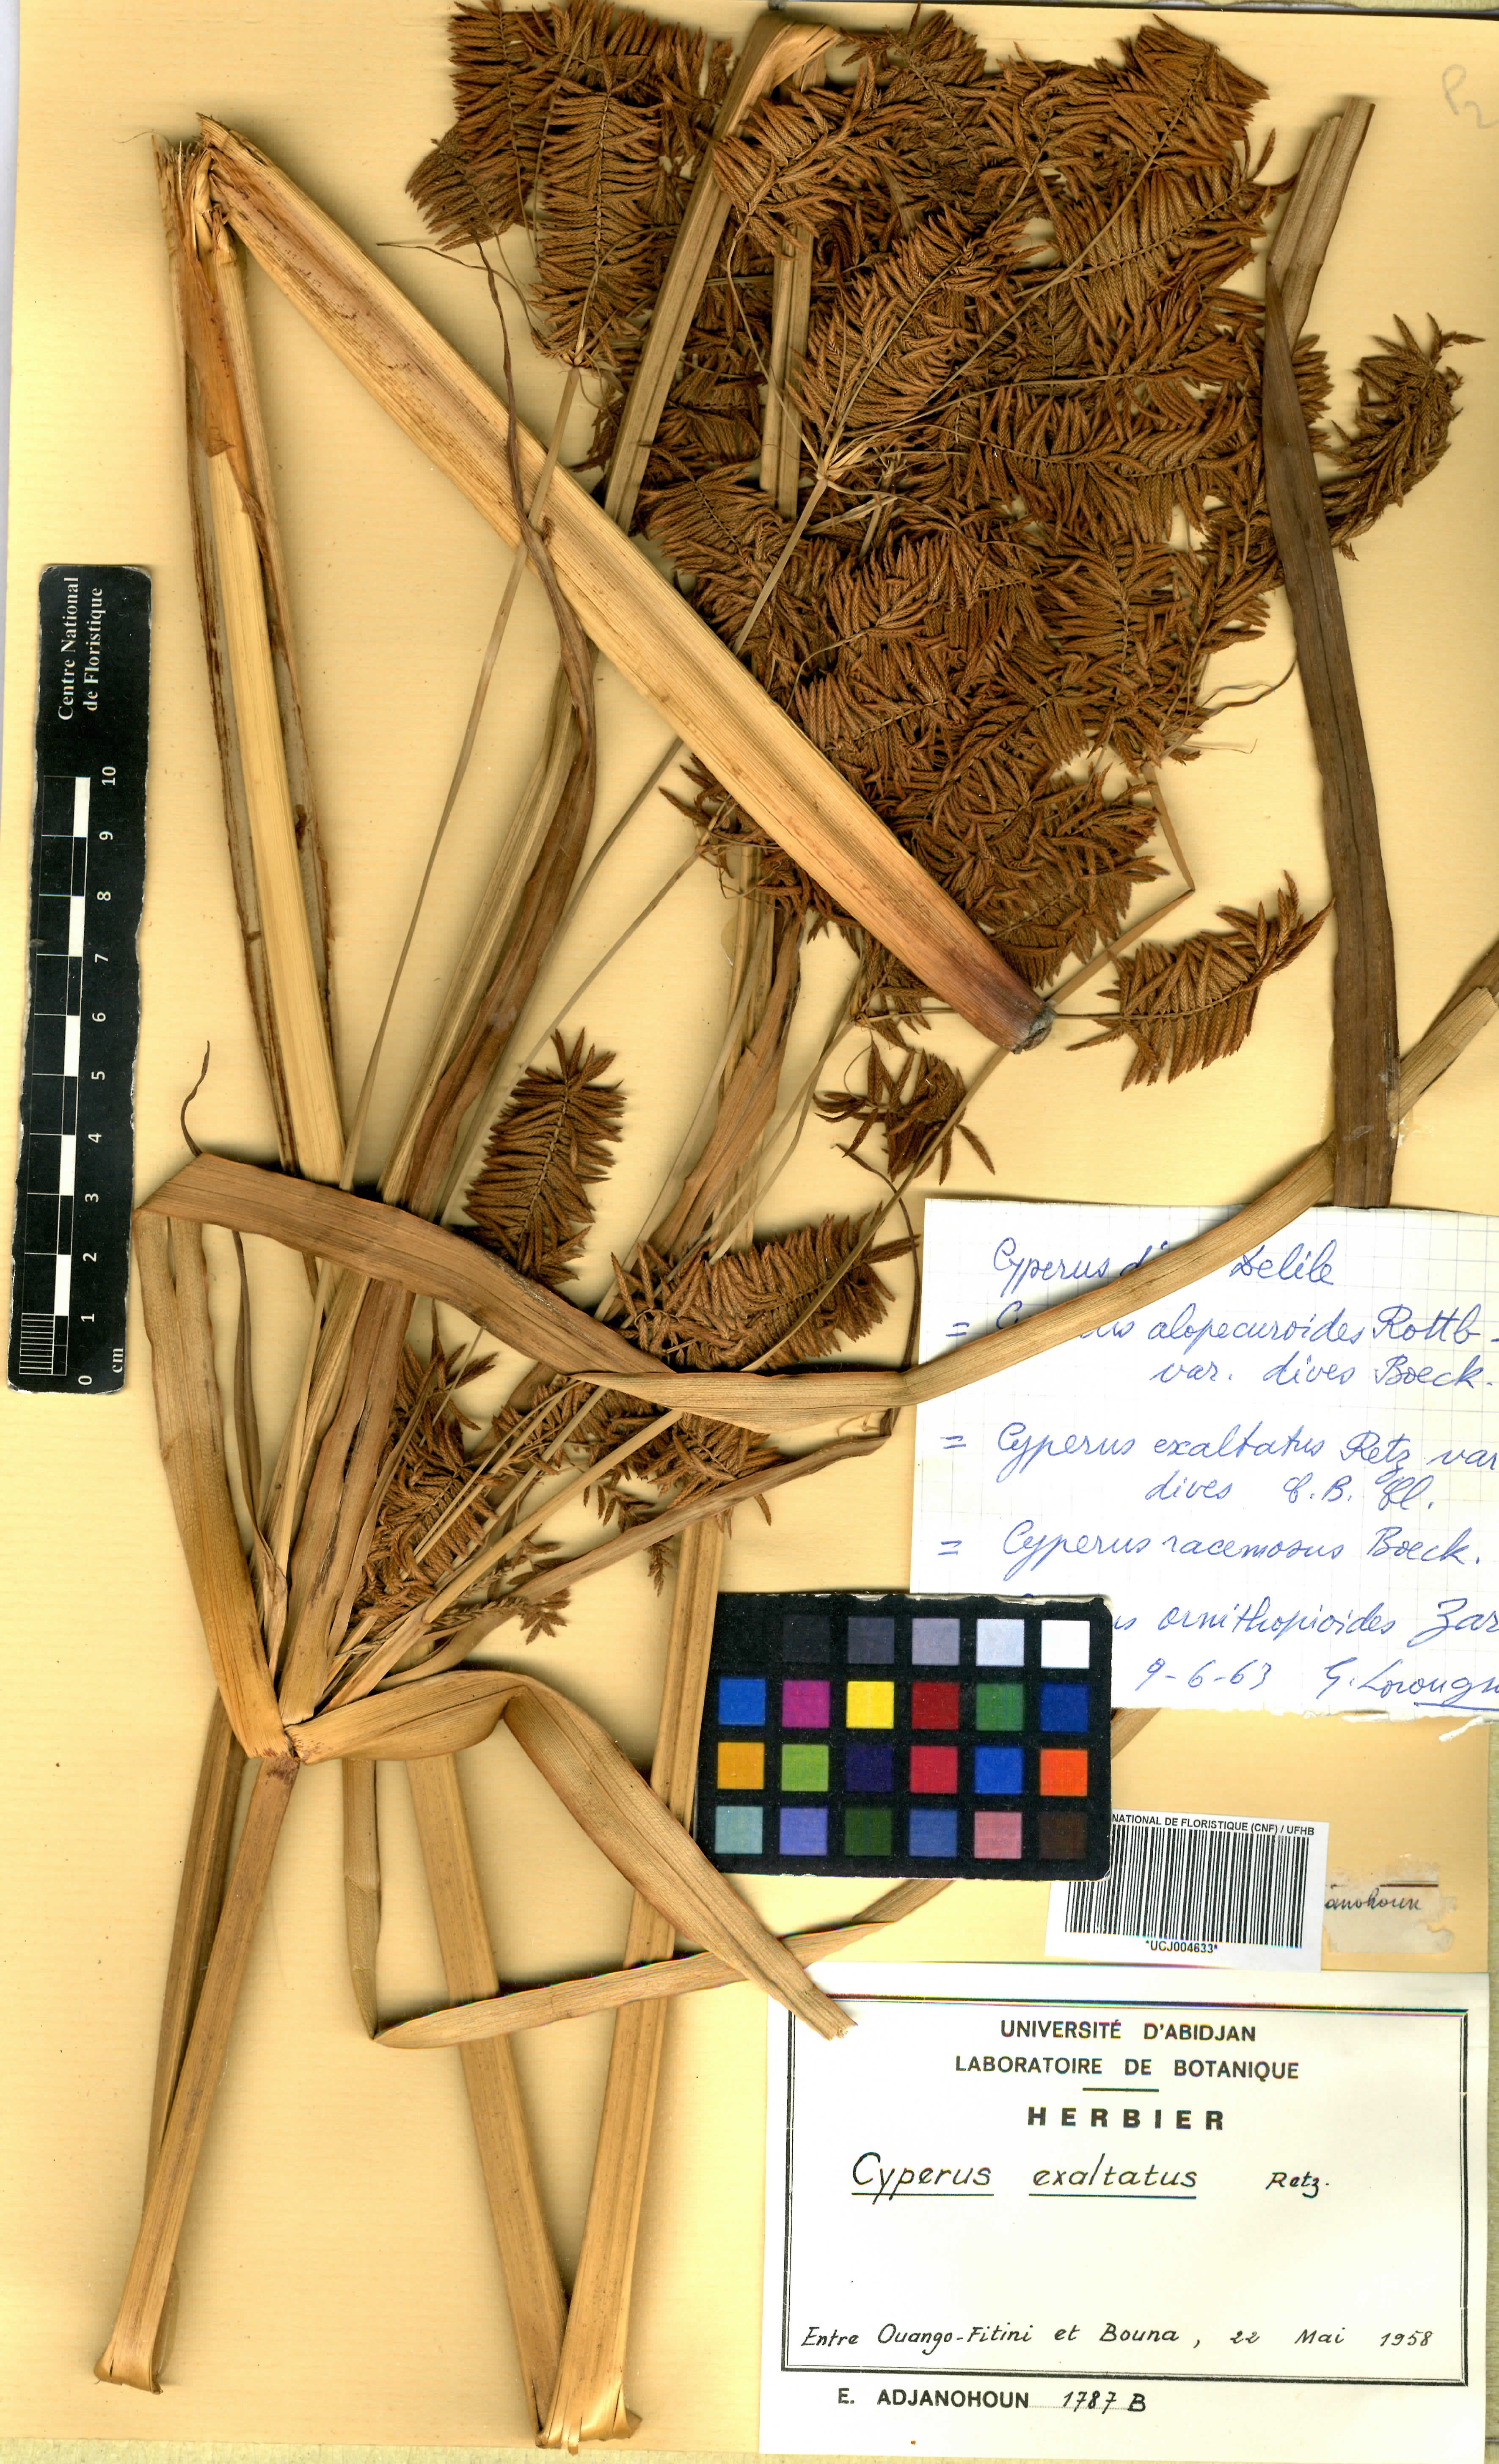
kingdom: Plantae
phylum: Tracheophyta
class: Liliopsida
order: Poales
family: Cyperaceae
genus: Cyperus
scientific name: Cyperus exaltatus
